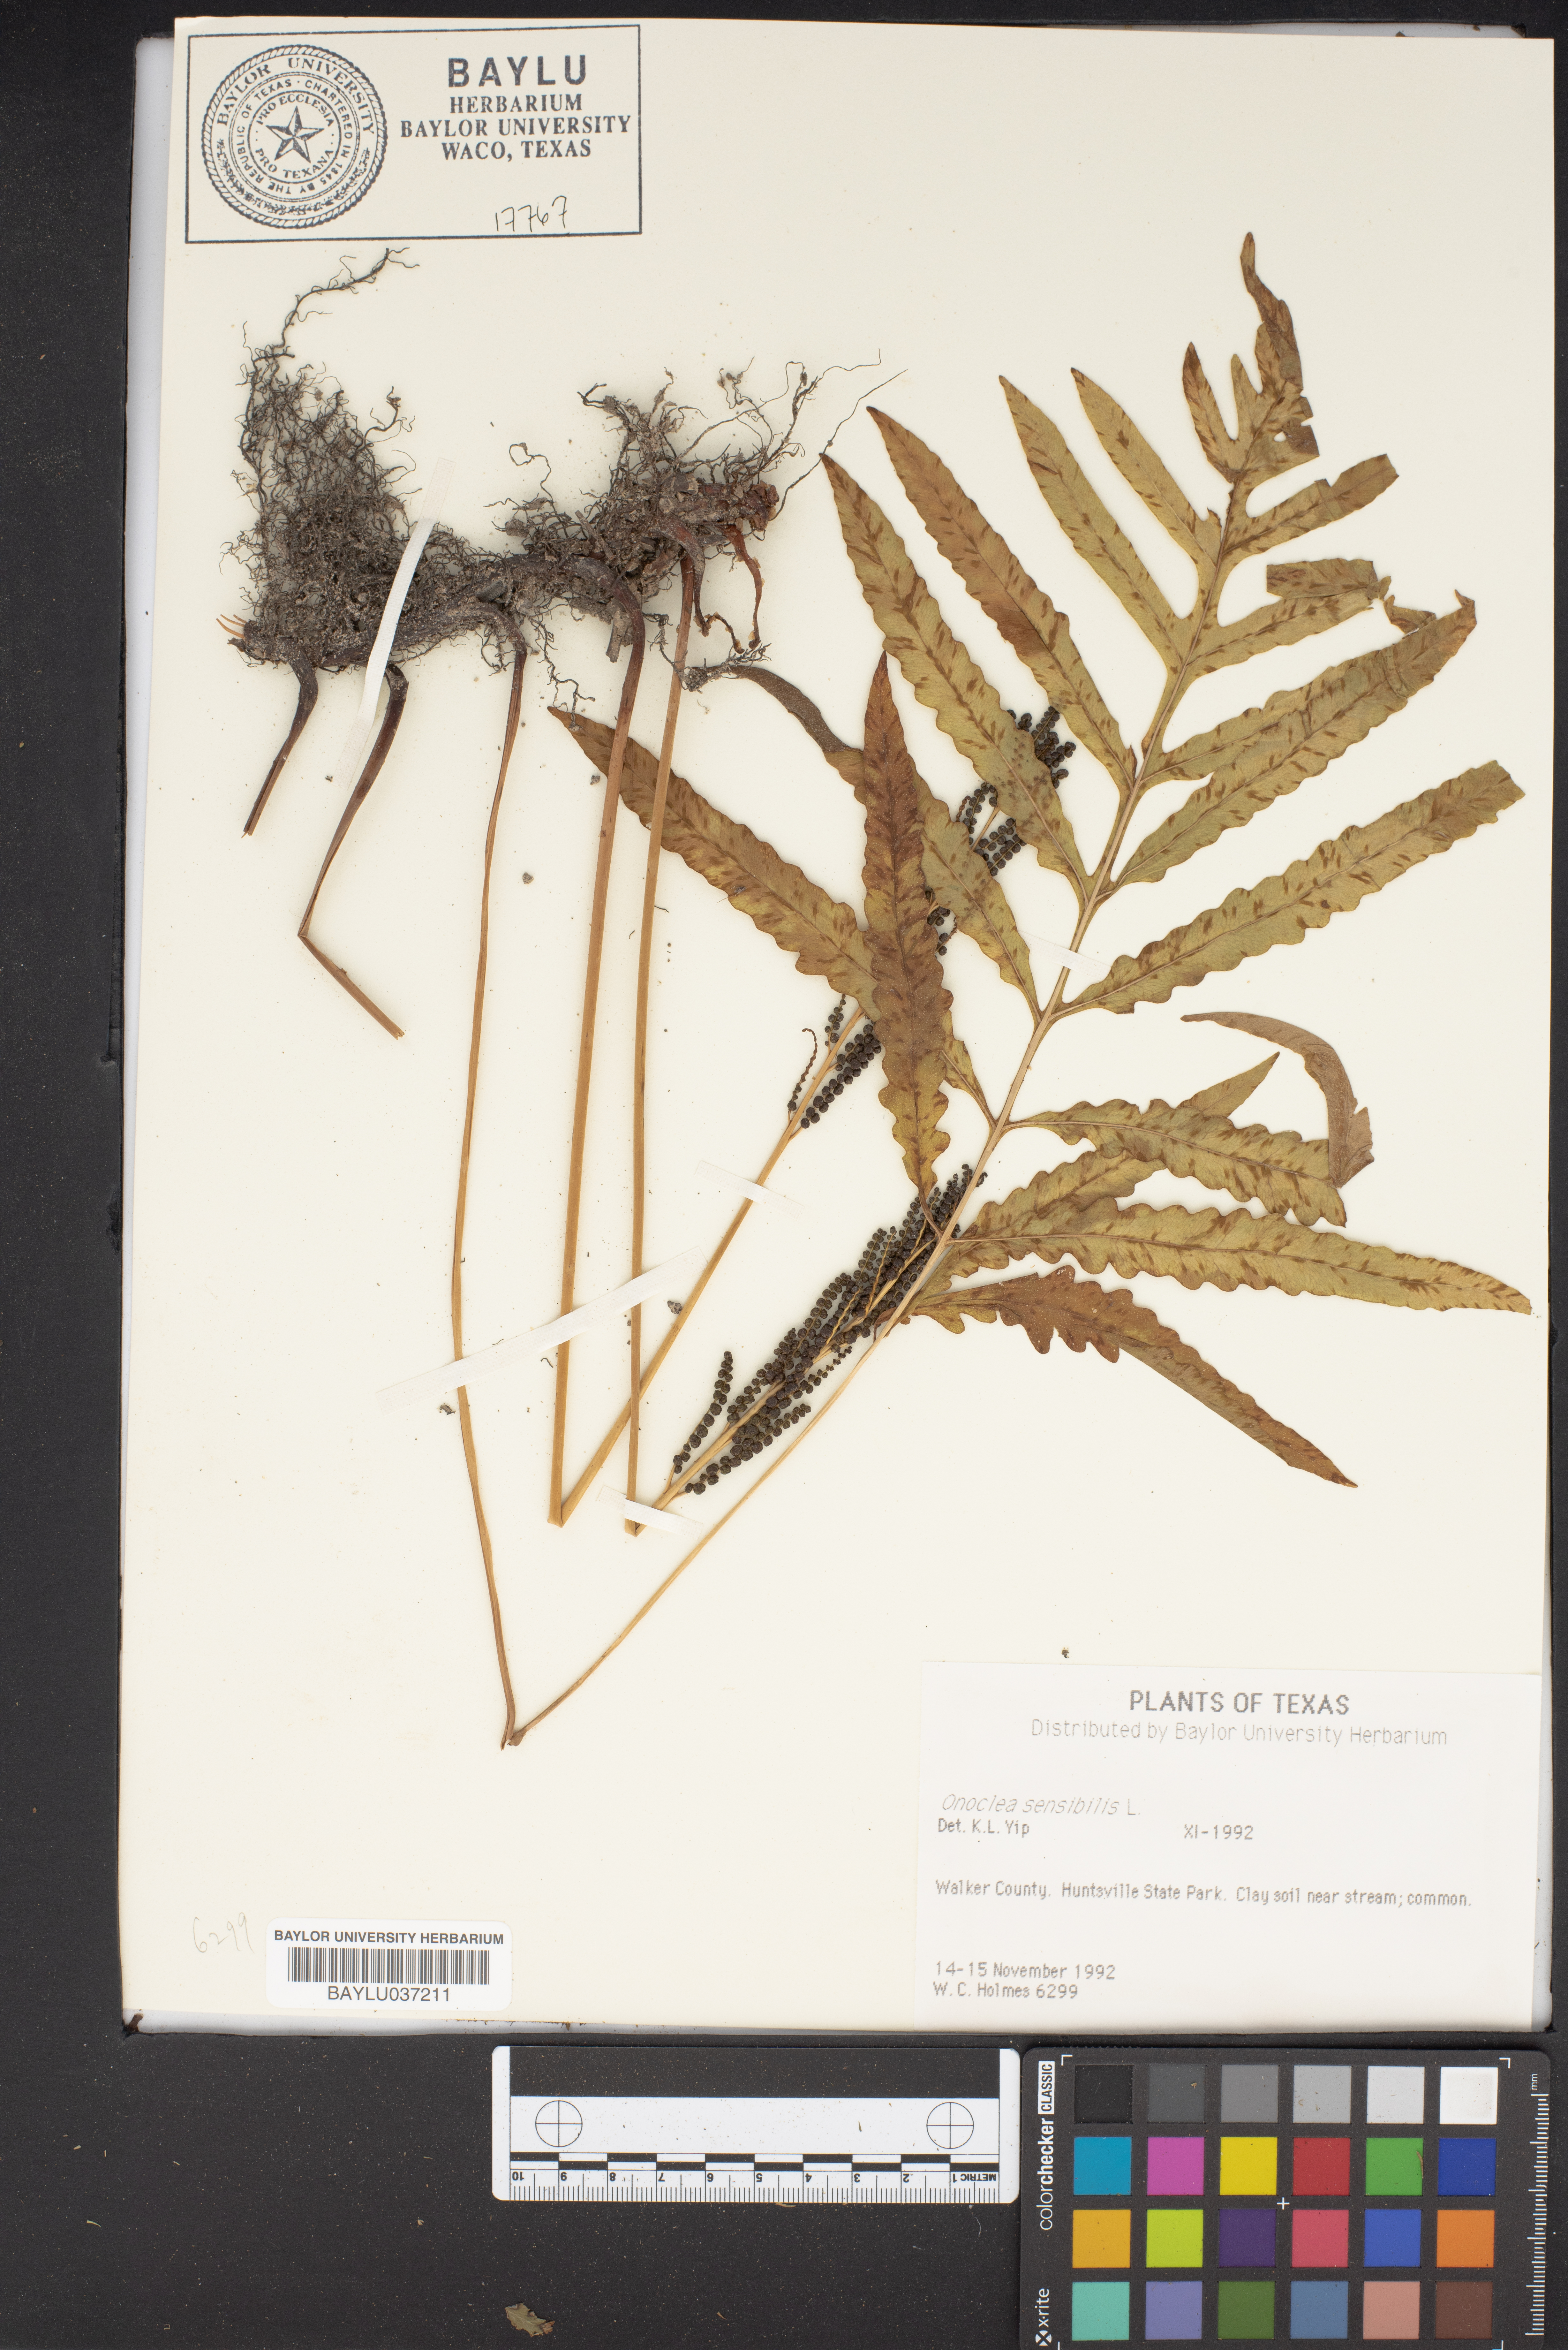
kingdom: Plantae
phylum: Tracheophyta
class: Polypodiopsida
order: Polypodiales
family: Onocleaceae
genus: Onoclea
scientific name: Onoclea sensibilis
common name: Sensitive fern
